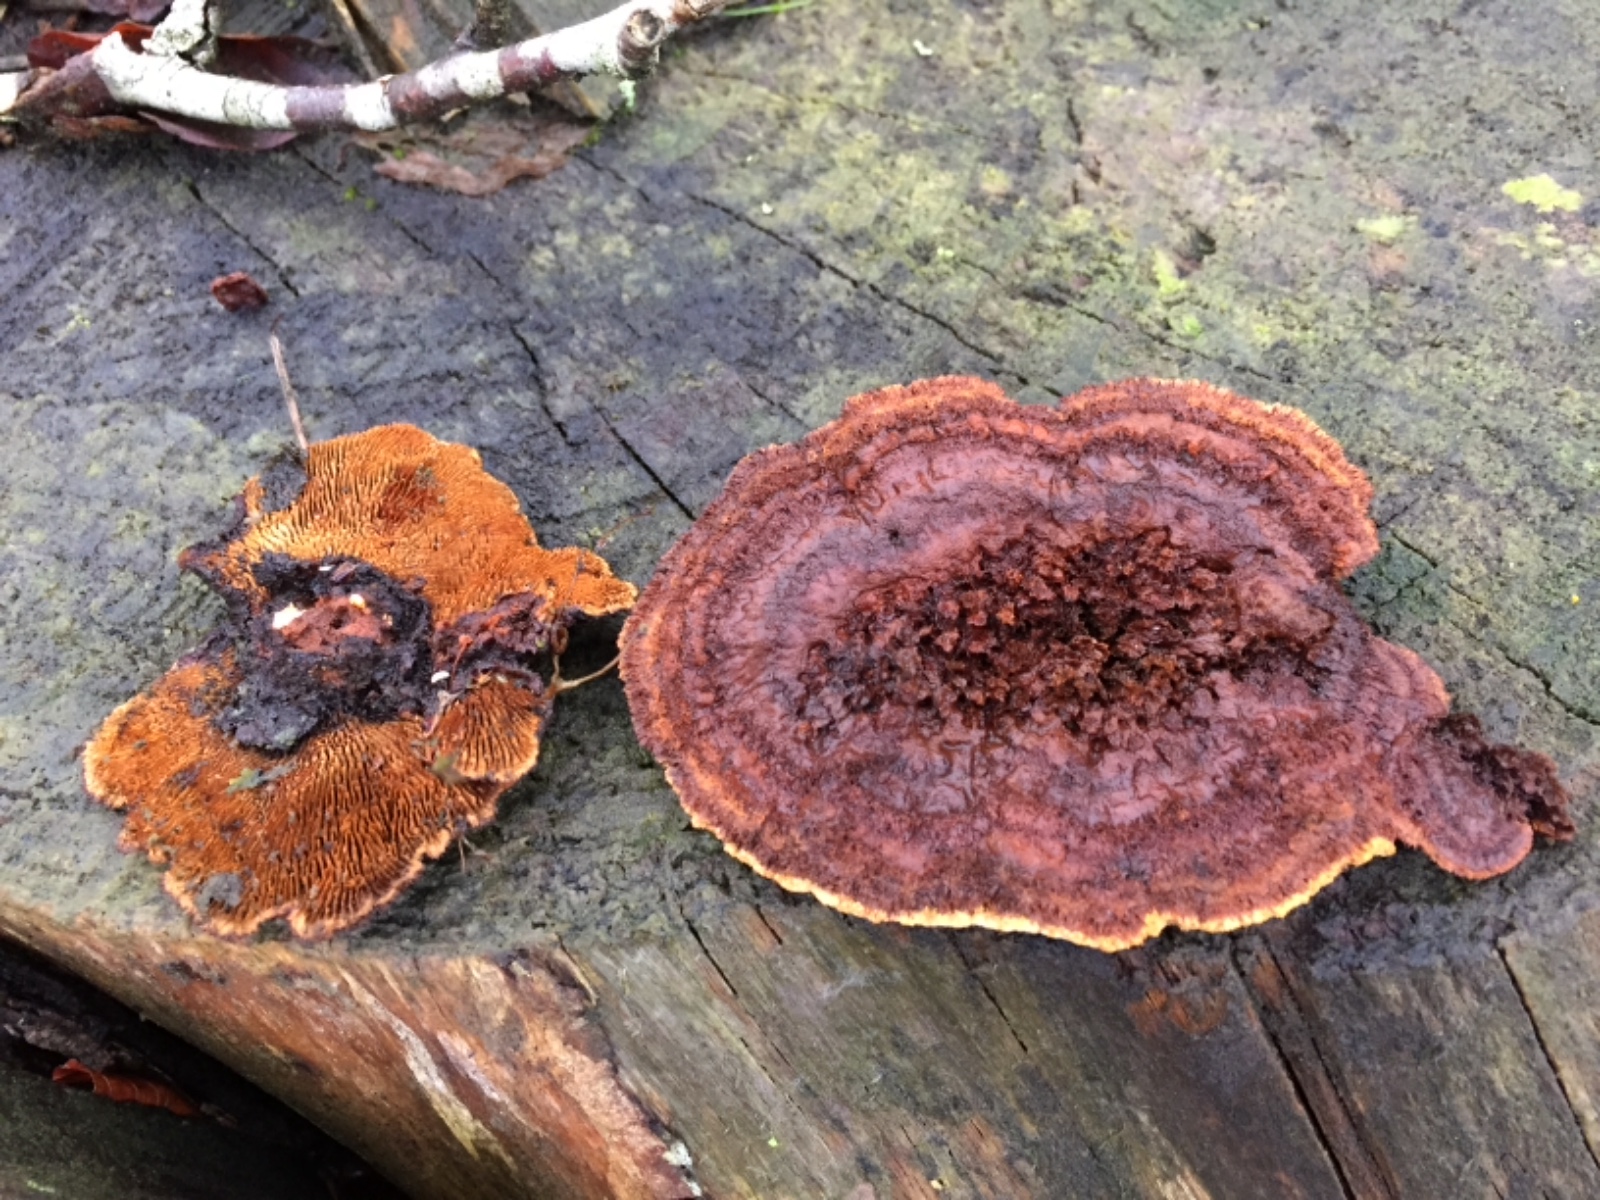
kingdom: Fungi
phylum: Basidiomycota
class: Agaricomycetes
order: Gloeophyllales
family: Gloeophyllaceae
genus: Gloeophyllum
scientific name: Gloeophyllum sepiarium
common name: fyrre-korkhat
